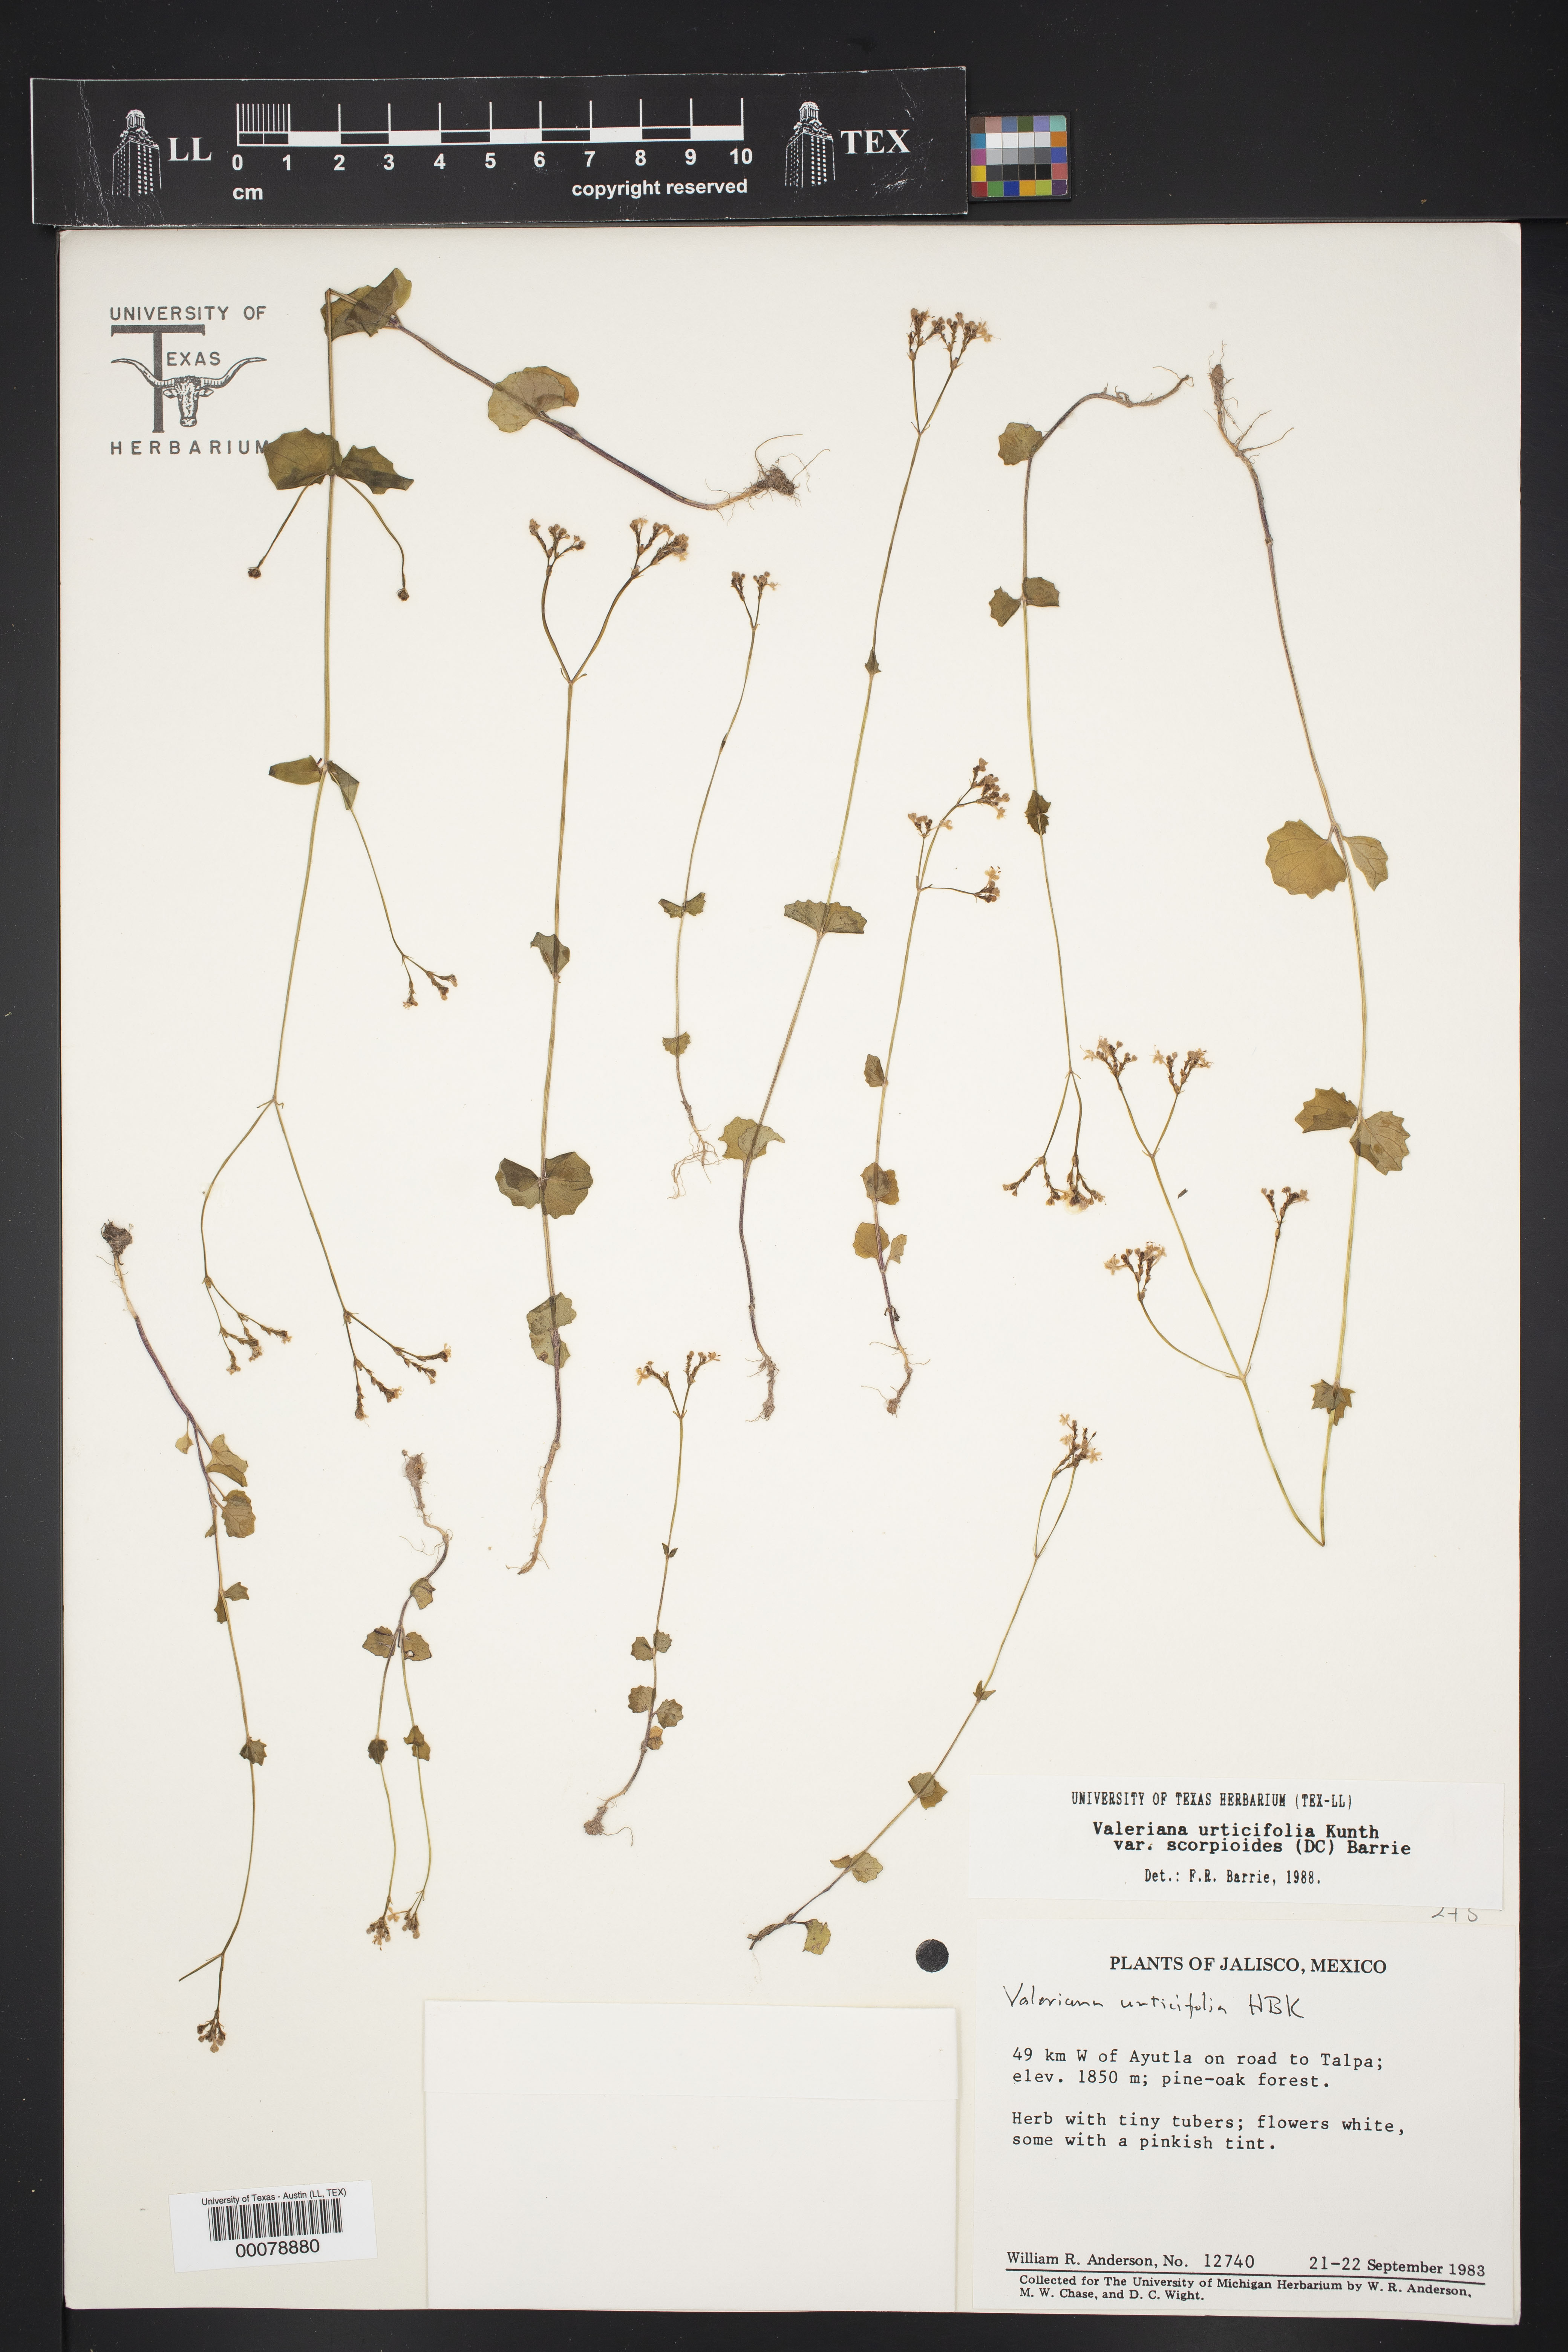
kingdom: Plantae
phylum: Tracheophyta
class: Magnoliopsida
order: Dipsacales
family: Caprifoliaceae
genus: Valeriana
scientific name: Valeriana urticifolia
